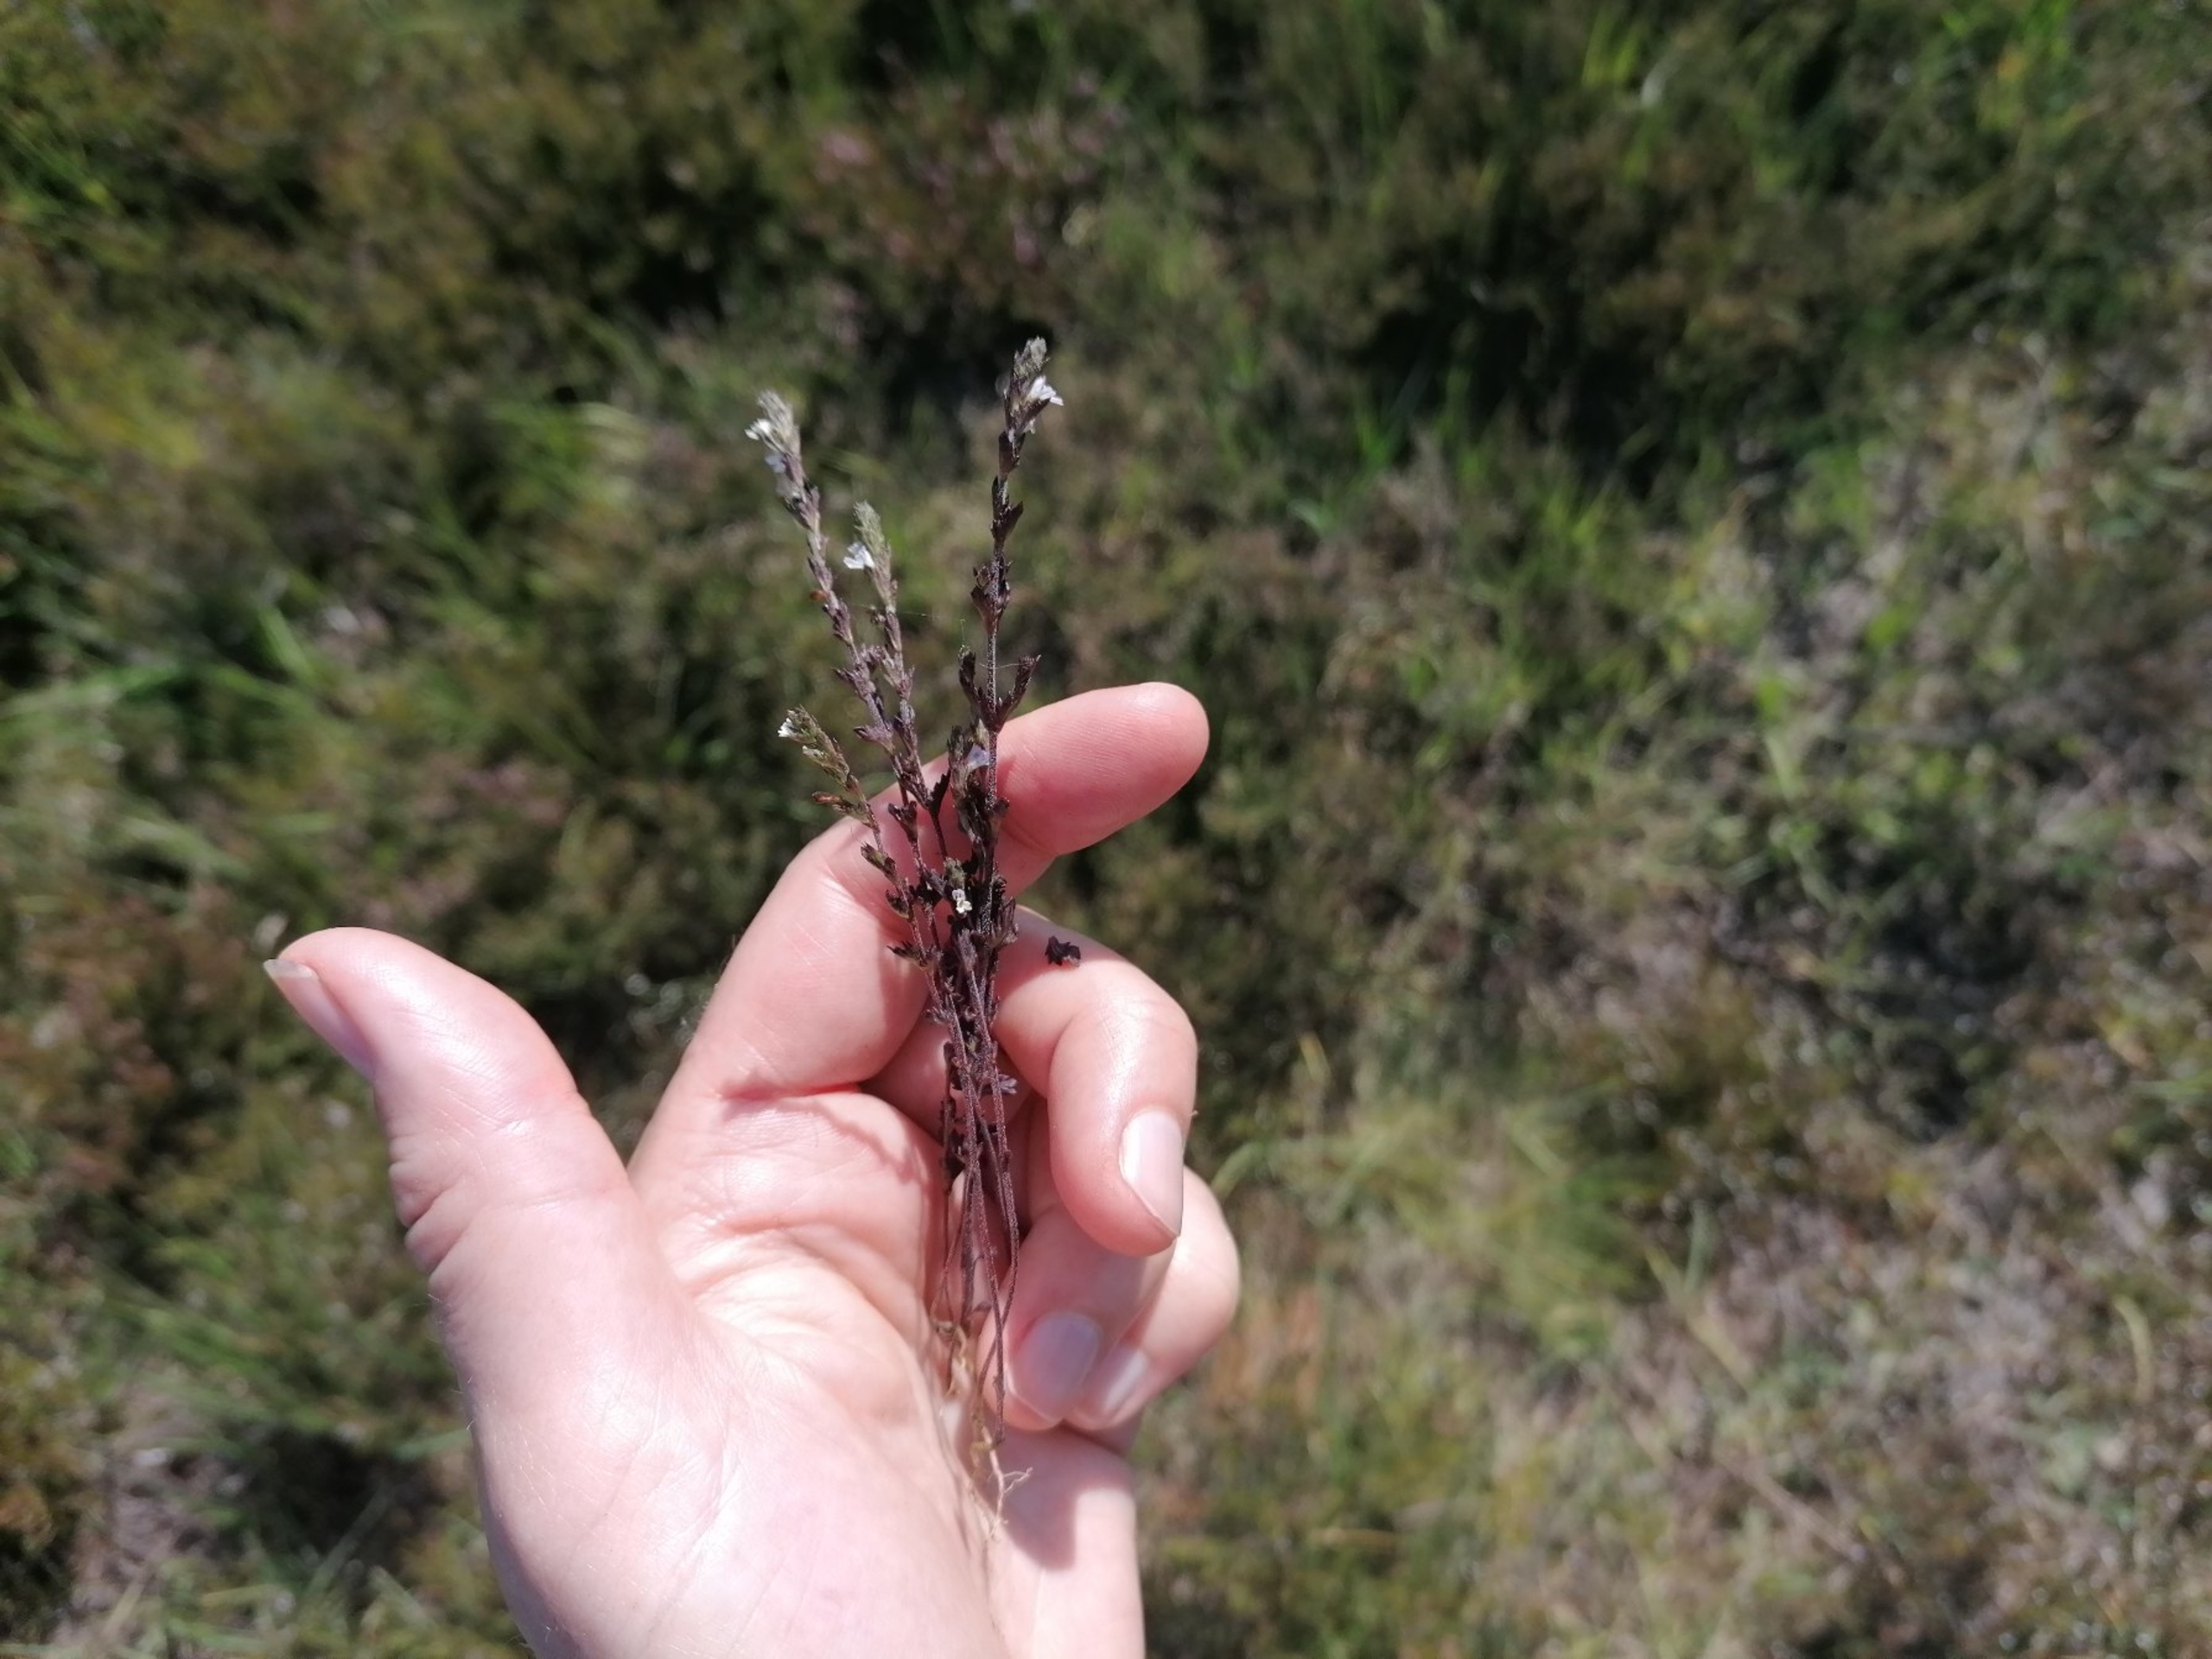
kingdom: Plantae
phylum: Tracheophyta
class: Magnoliopsida
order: Lamiales
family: Orobanchaceae
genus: Euphrasia
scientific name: Euphrasia micrantha
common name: Lyng-øjentrøst
